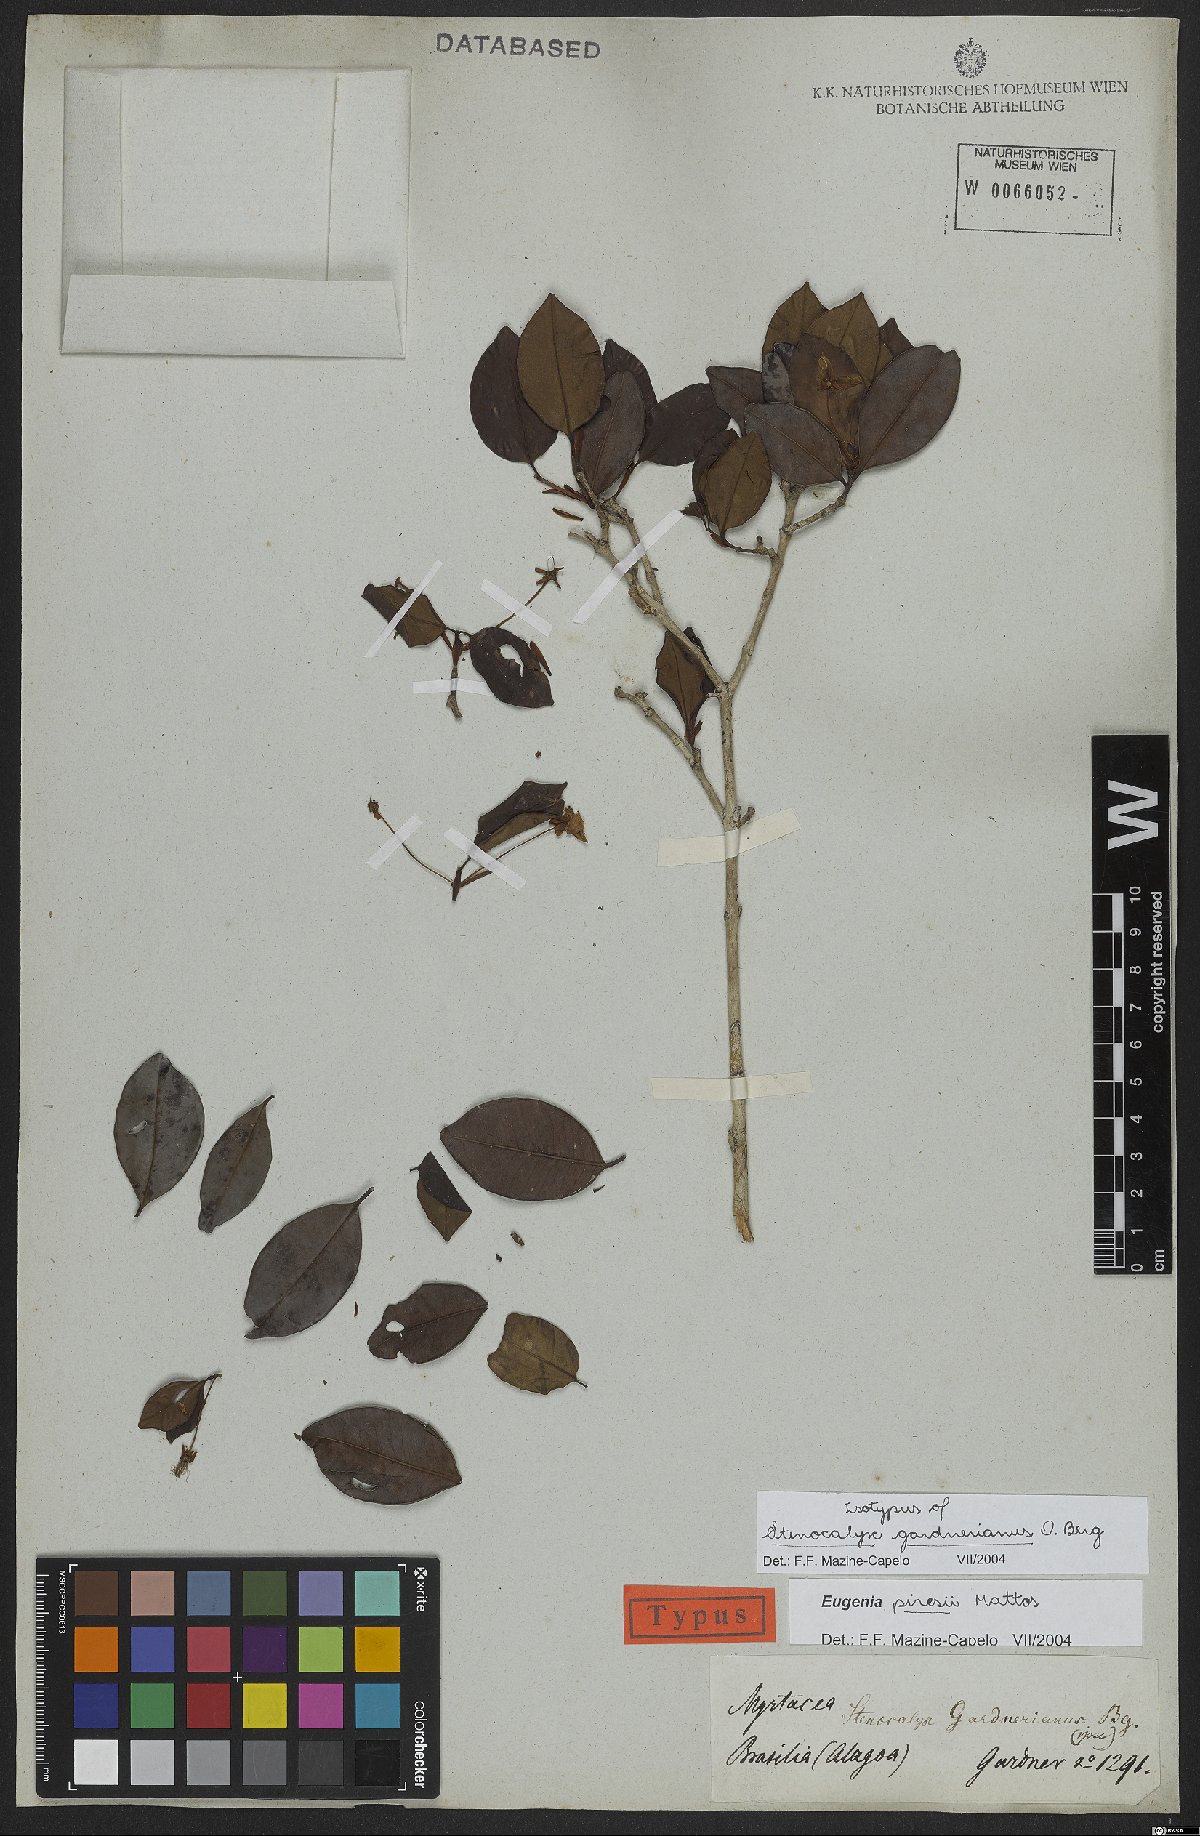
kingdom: Plantae
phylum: Tracheophyta
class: Magnoliopsida
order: Myrtales
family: Myrtaceae
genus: Eugenia
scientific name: Eugenia piresii
